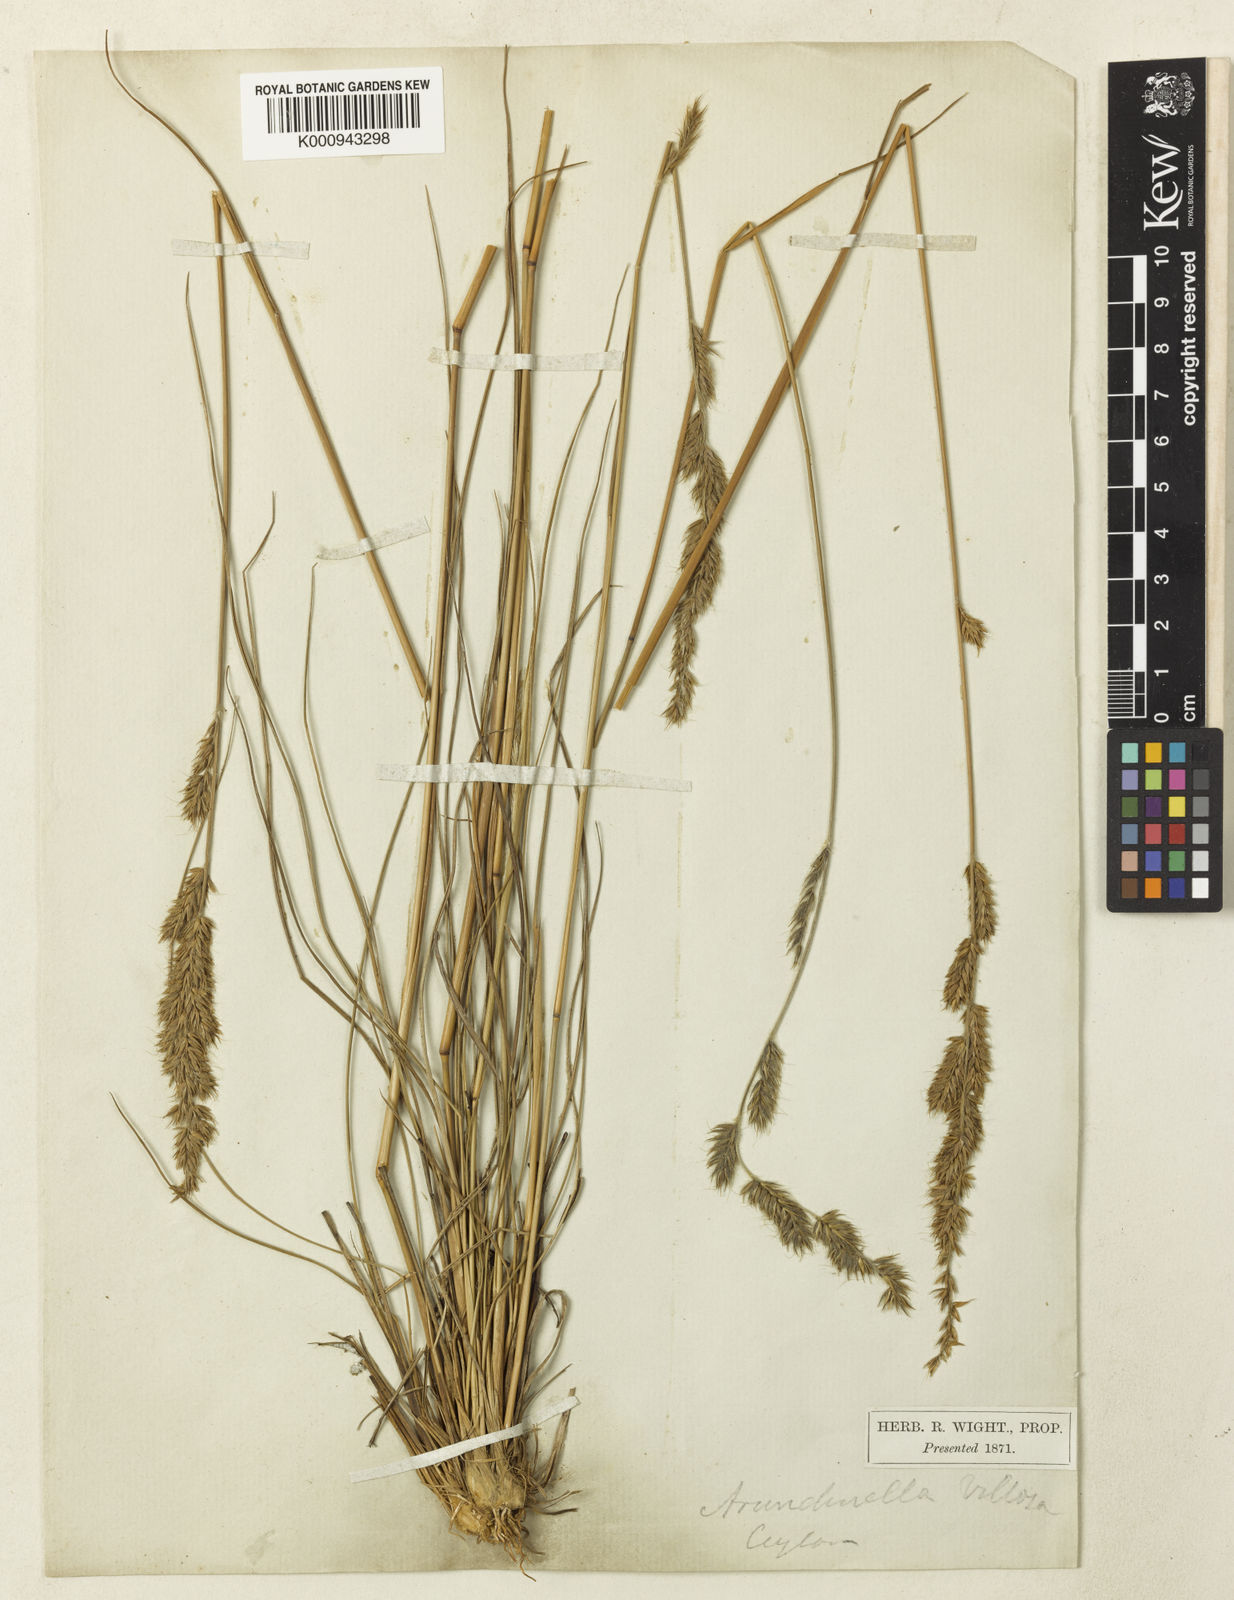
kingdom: Plantae
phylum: Tracheophyta
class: Liliopsida
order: Poales
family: Poaceae
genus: Arundinella
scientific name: Arundinella villosa
